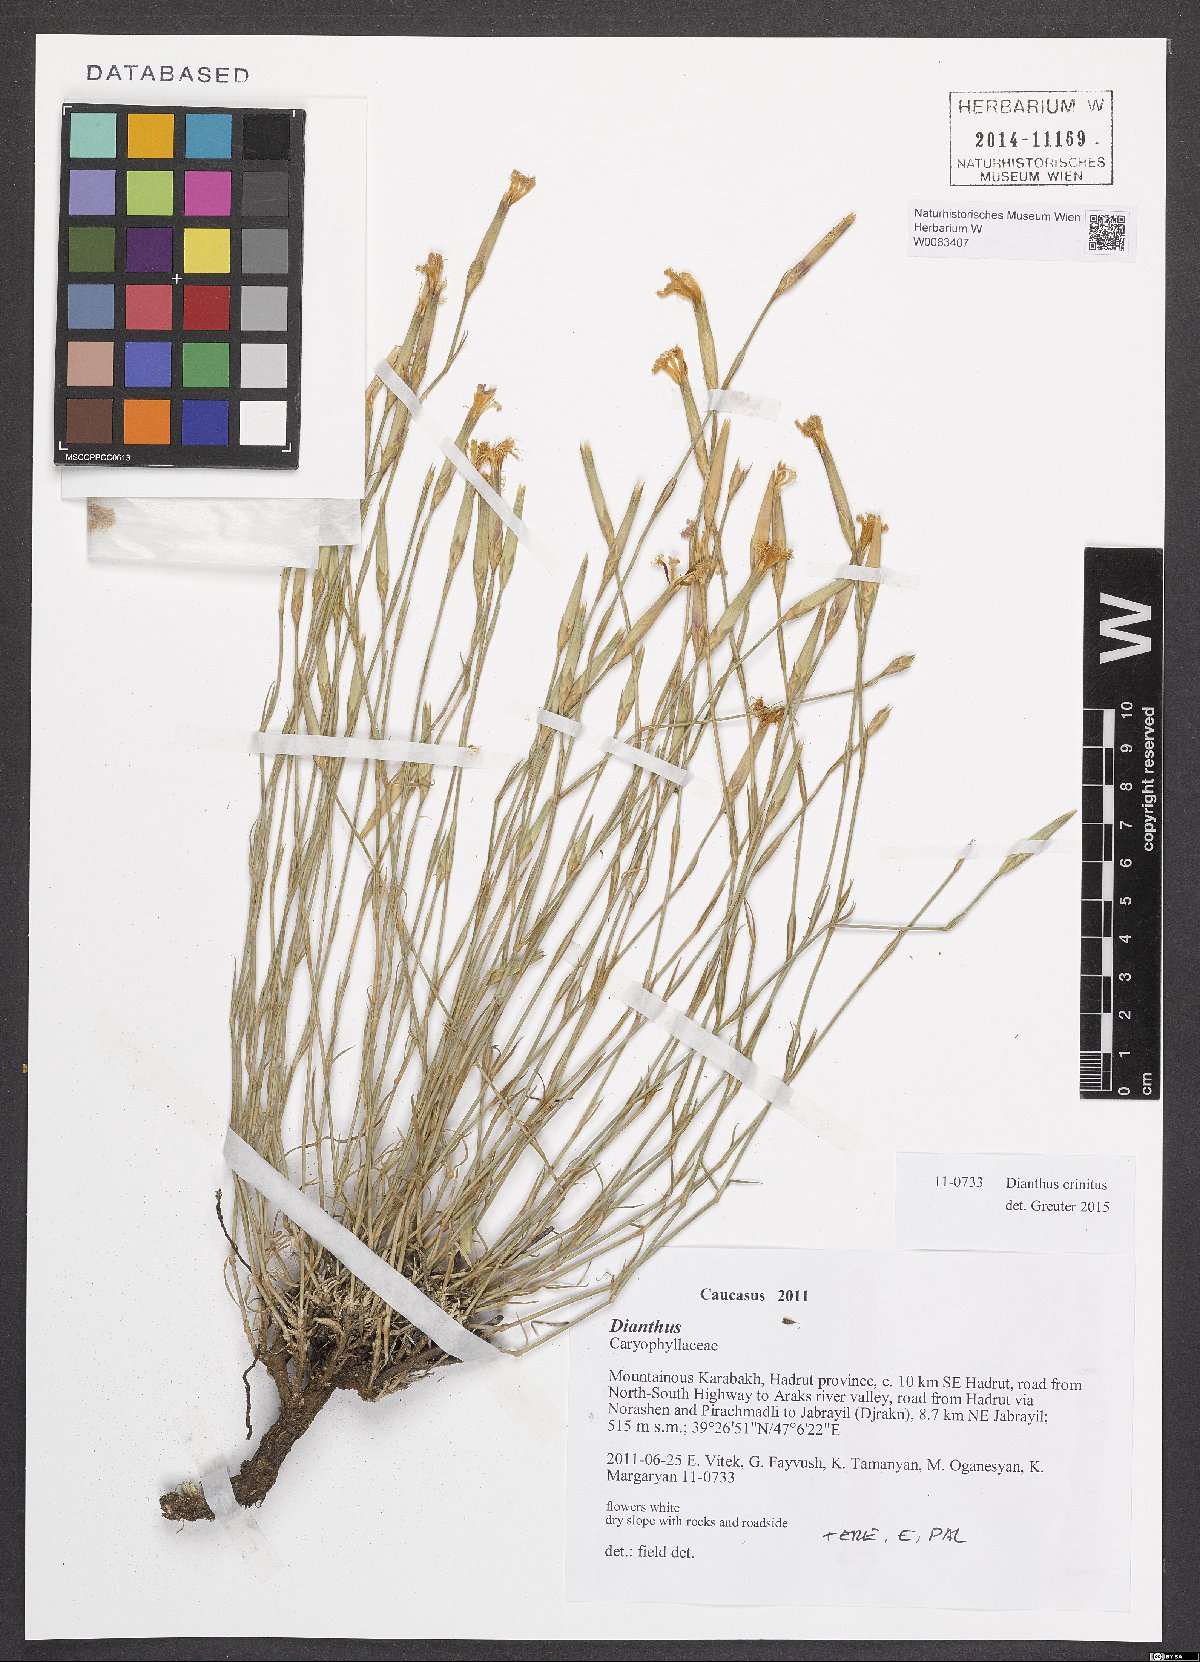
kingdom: Plantae
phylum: Tracheophyta
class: Magnoliopsida
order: Caryophyllales
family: Caryophyllaceae
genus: Dianthus
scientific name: Dianthus crinitus
